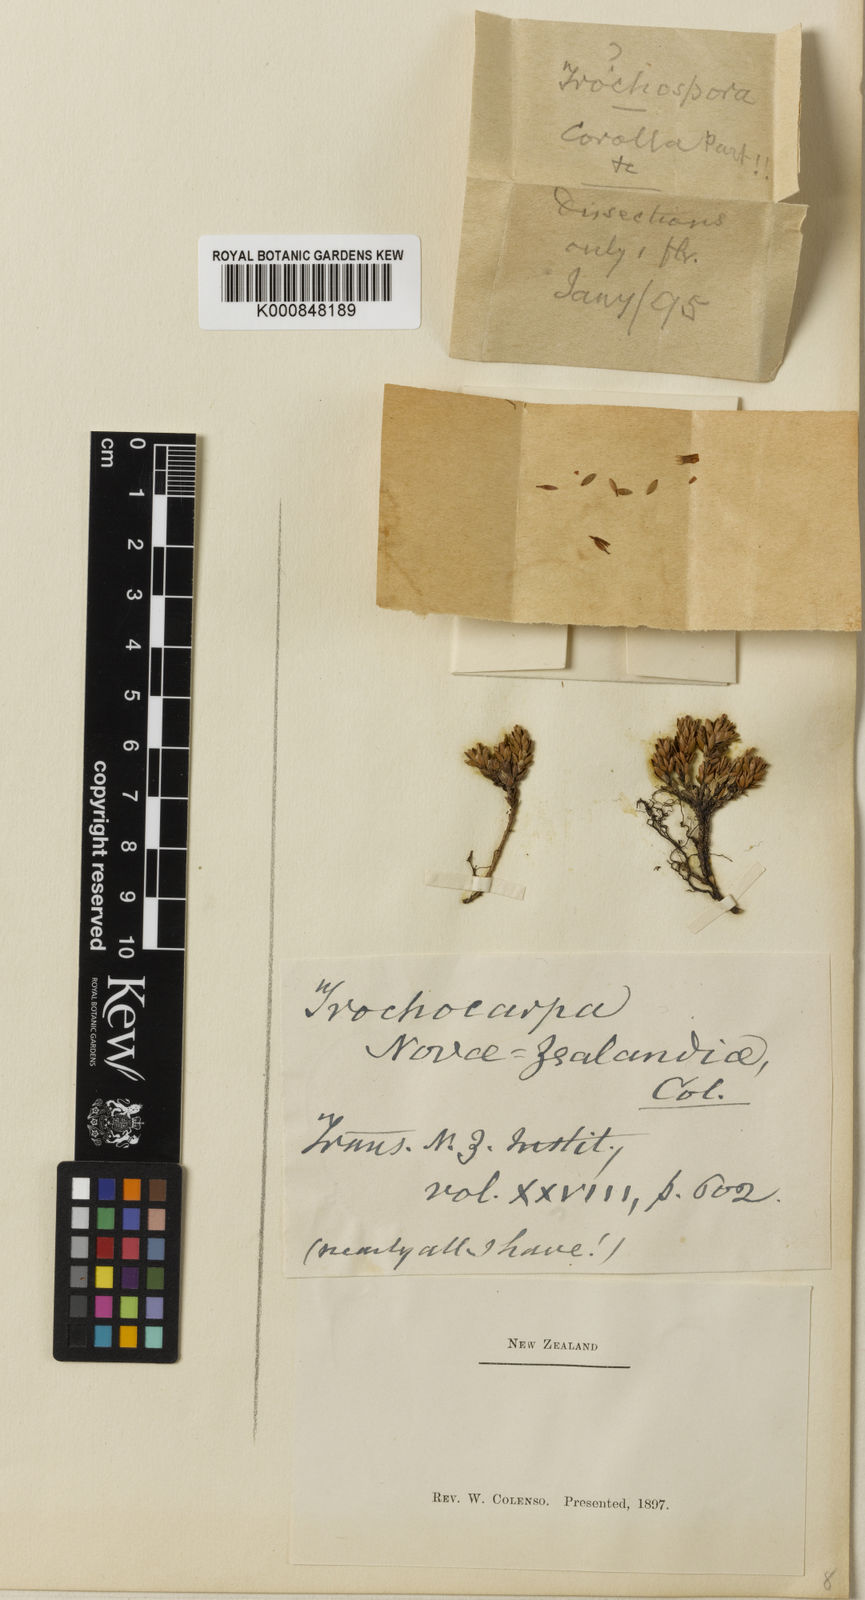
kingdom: Plantae
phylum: Tracheophyta
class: Magnoliopsida
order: Ericales
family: Ericaceae
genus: Trochocarpa
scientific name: Trochocarpa novae-zealandiae
